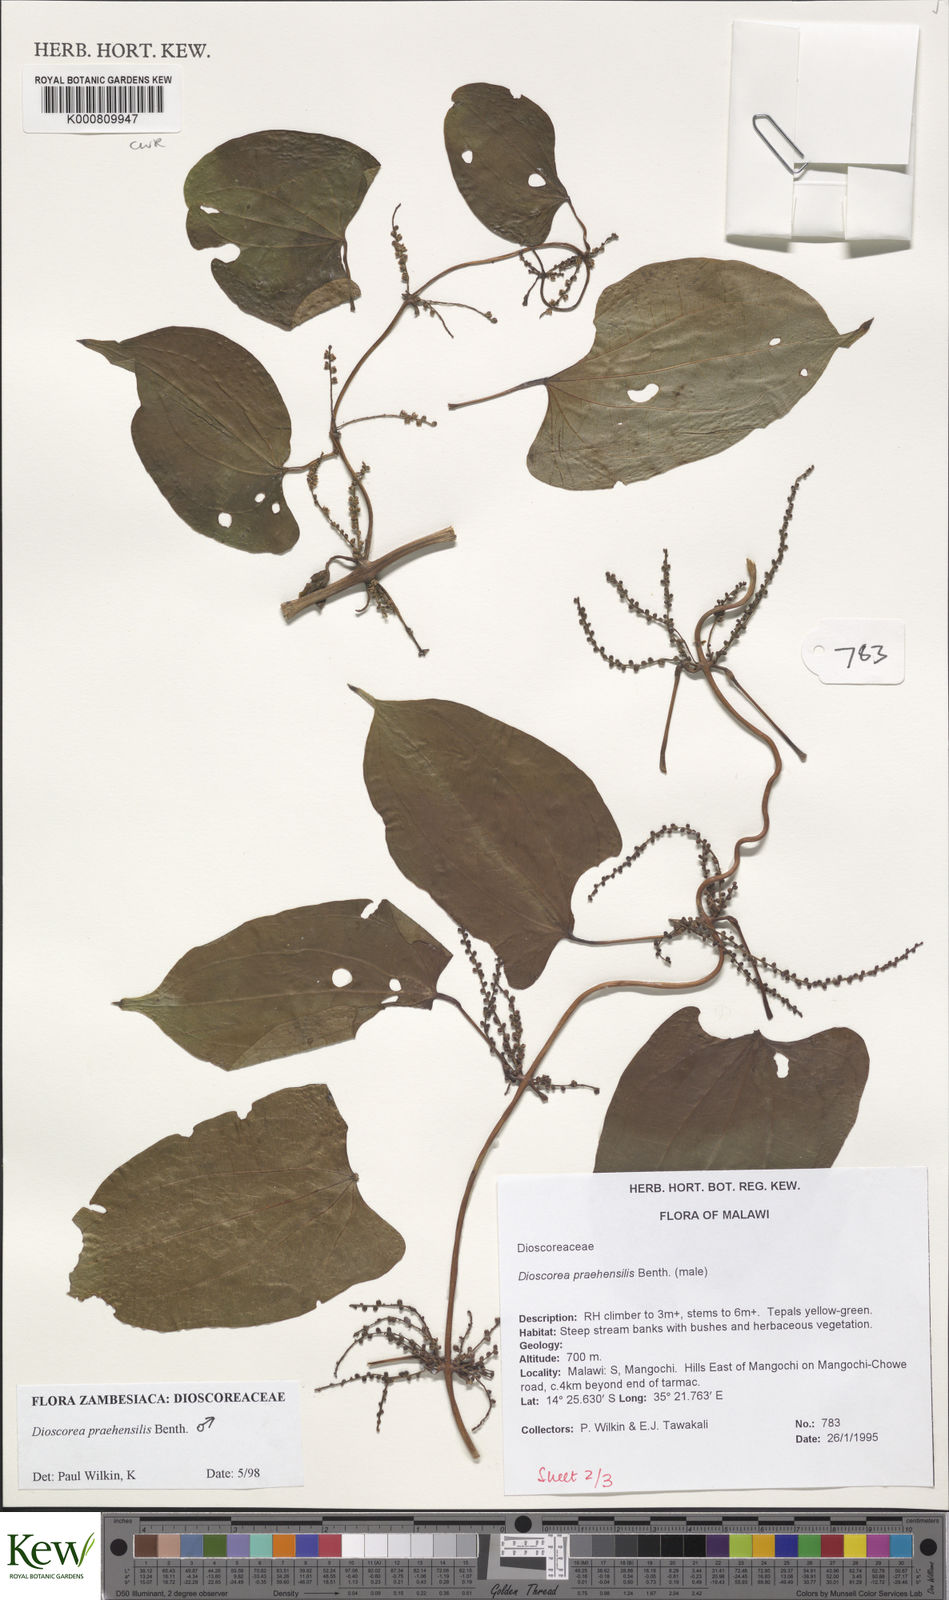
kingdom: Plantae
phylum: Tracheophyta
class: Liliopsida
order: Dioscoreales
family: Dioscoreaceae
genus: Dioscorea
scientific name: Dioscorea praehensilis
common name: Bush yam
